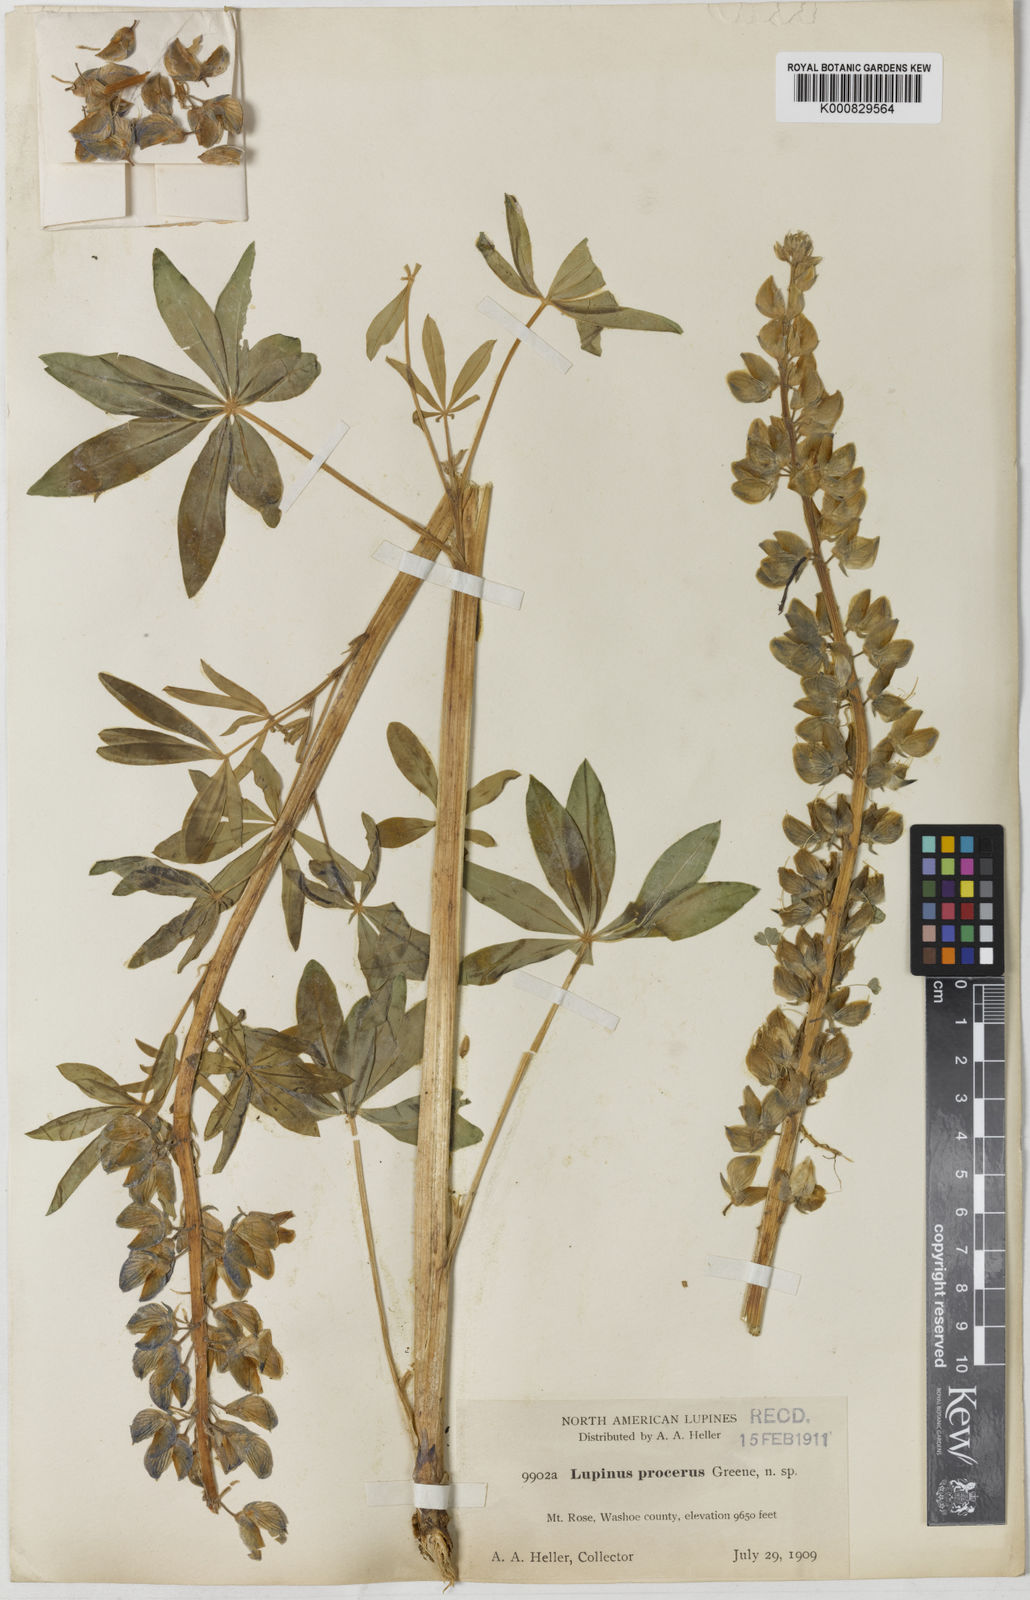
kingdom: Plantae
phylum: Tracheophyta
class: Magnoliopsida
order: Fabales
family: Fabaceae
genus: Lupinus
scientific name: Lupinus polyphyllus
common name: Garden lupin
